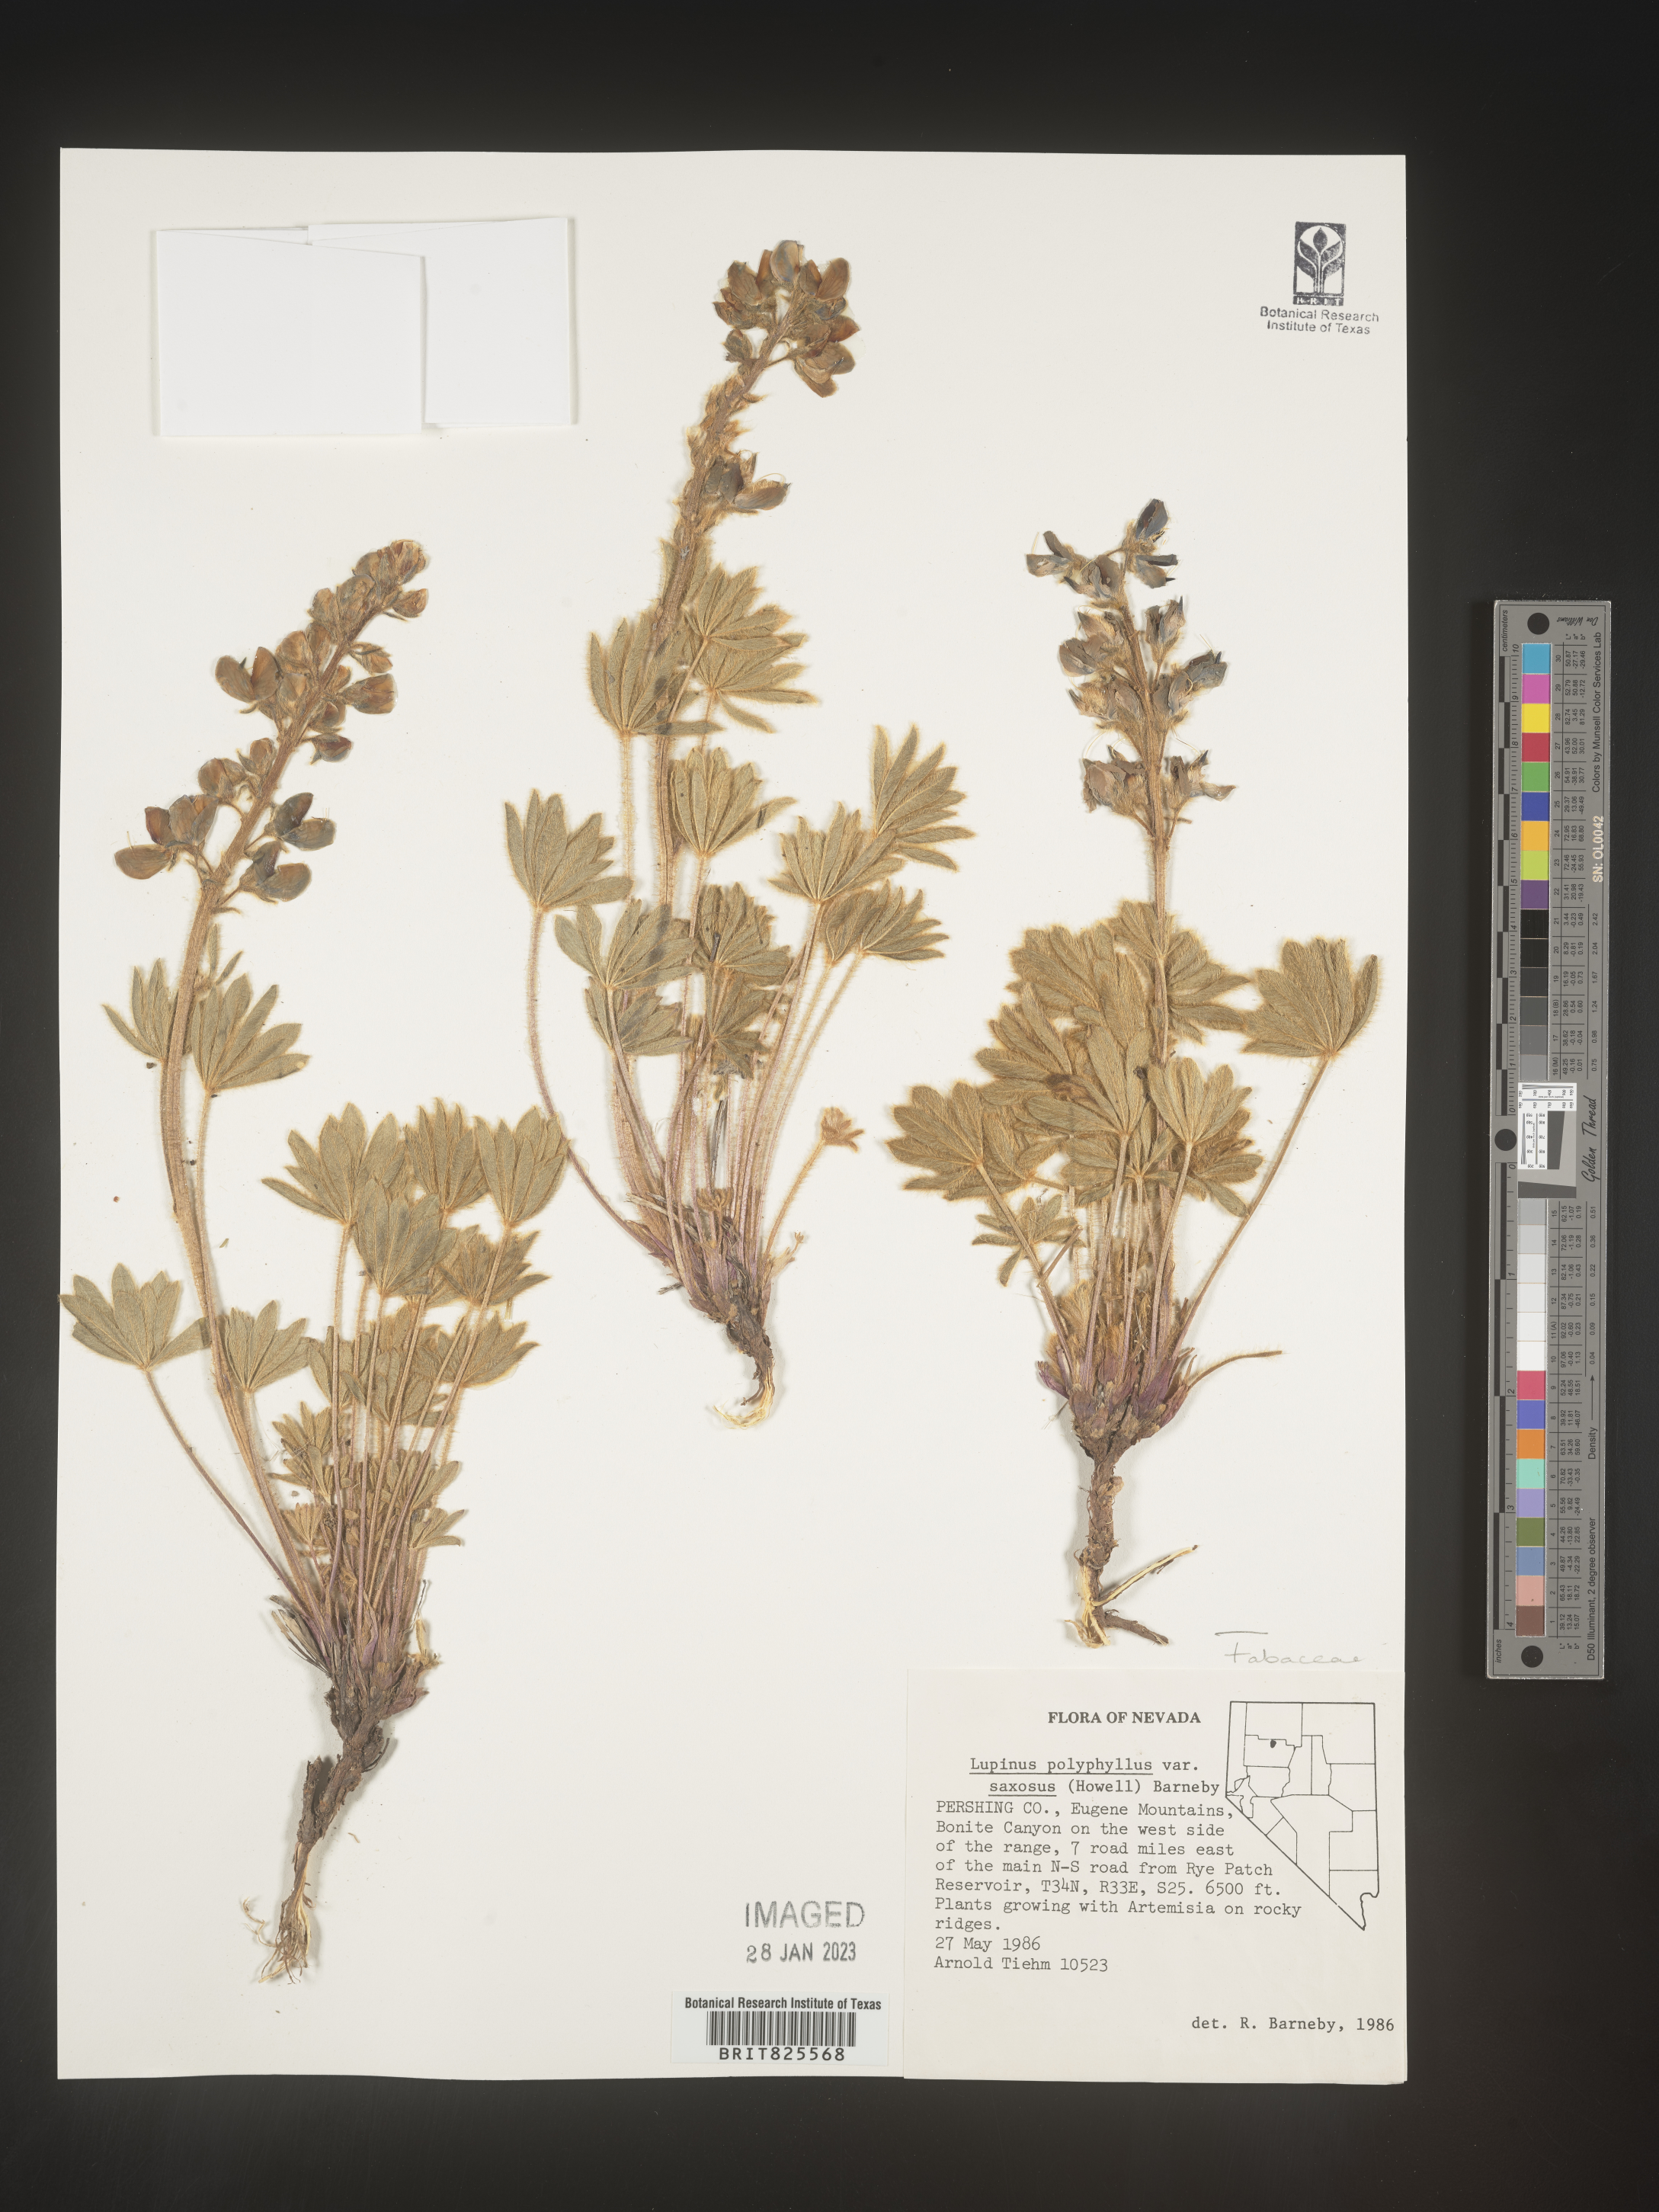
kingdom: Plantae
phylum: Tracheophyta
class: Magnoliopsida
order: Fabales
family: Fabaceae
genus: Lupinus
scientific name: Lupinus
